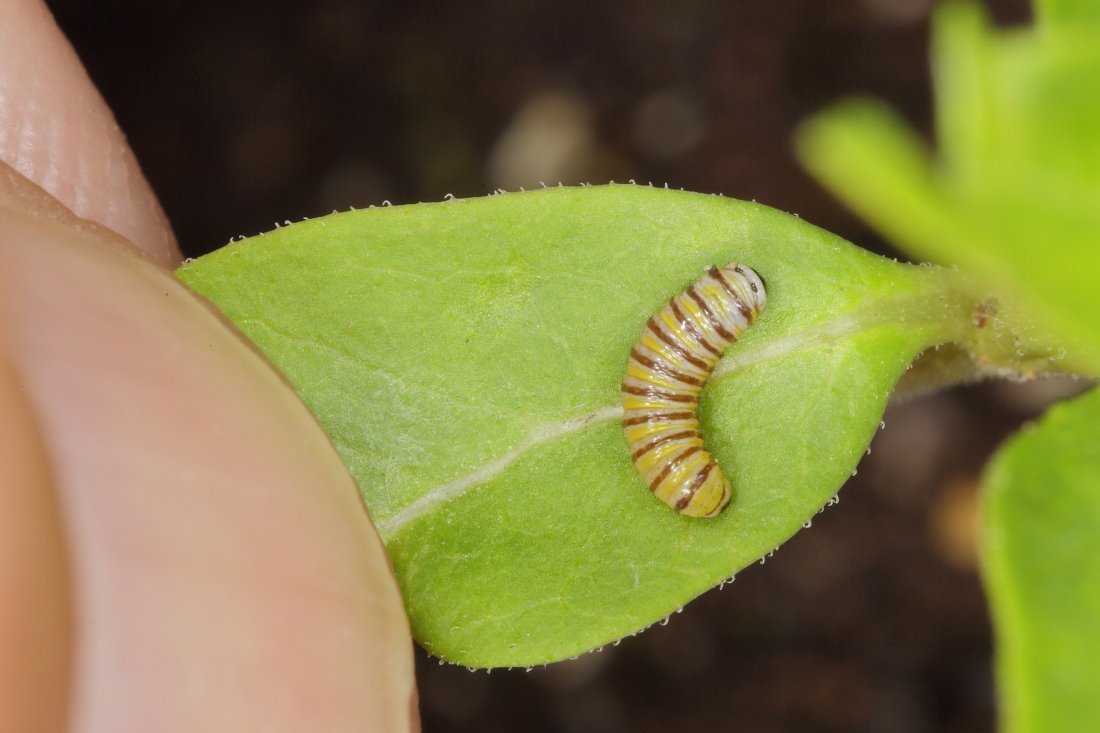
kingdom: Animalia
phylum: Arthropoda
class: Insecta
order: Lepidoptera
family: Nymphalidae
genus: Danaus
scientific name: Danaus plexippus
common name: Monarch
